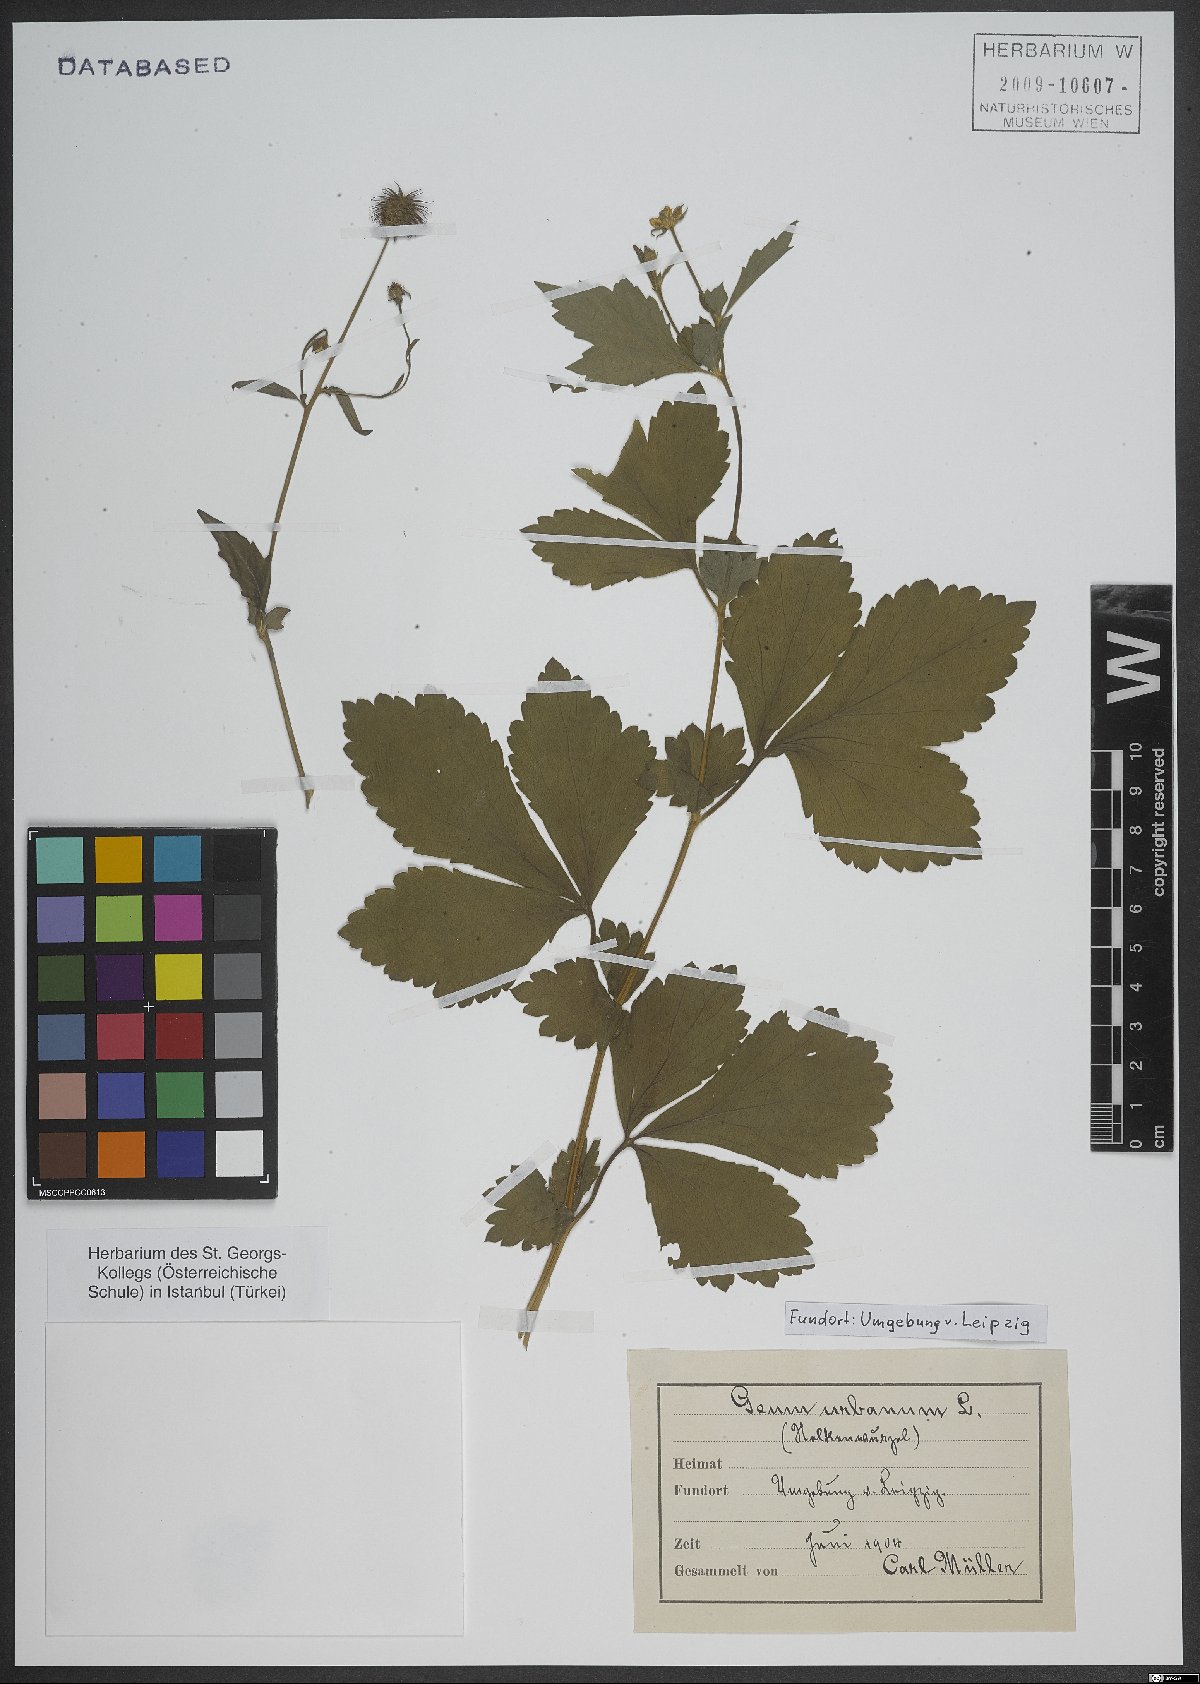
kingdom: Plantae
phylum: Tracheophyta
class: Magnoliopsida
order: Rosales
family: Rosaceae
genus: Geum
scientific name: Geum urbanum
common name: Wood avens
